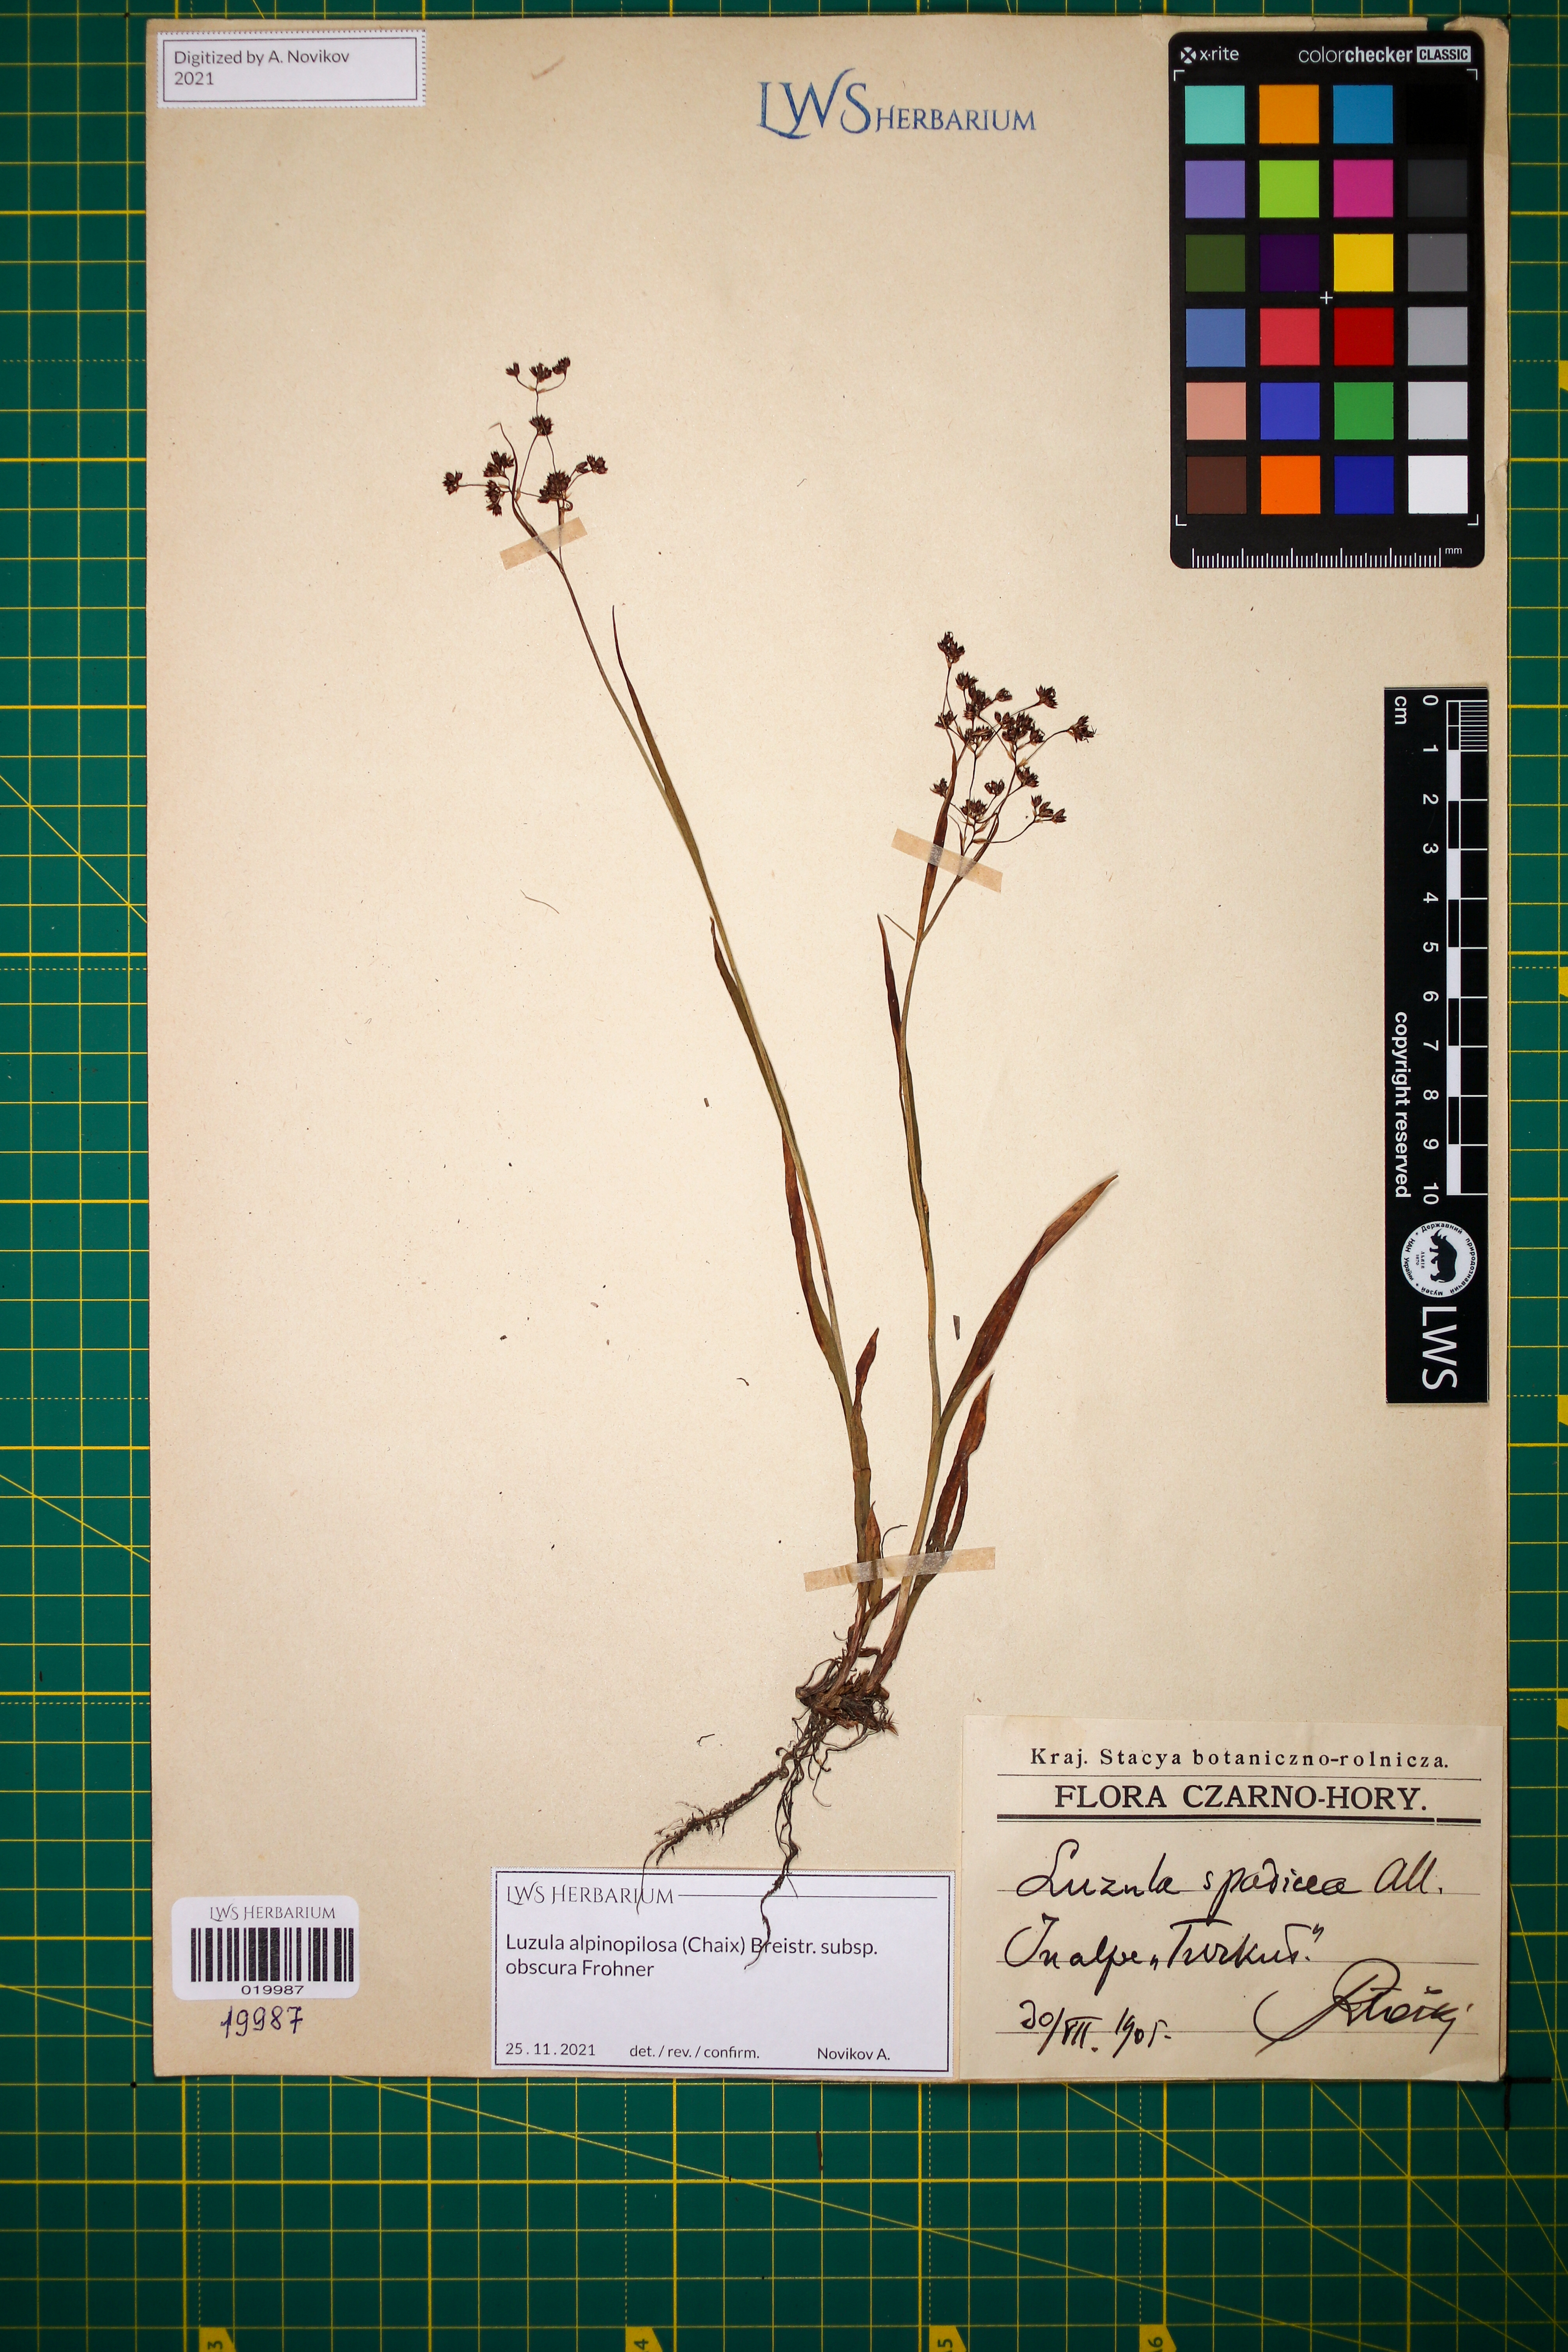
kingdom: Plantae
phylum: Tracheophyta
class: Liliopsida
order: Poales
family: Juncaceae
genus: Luzula
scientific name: Luzula alpinopilosa
